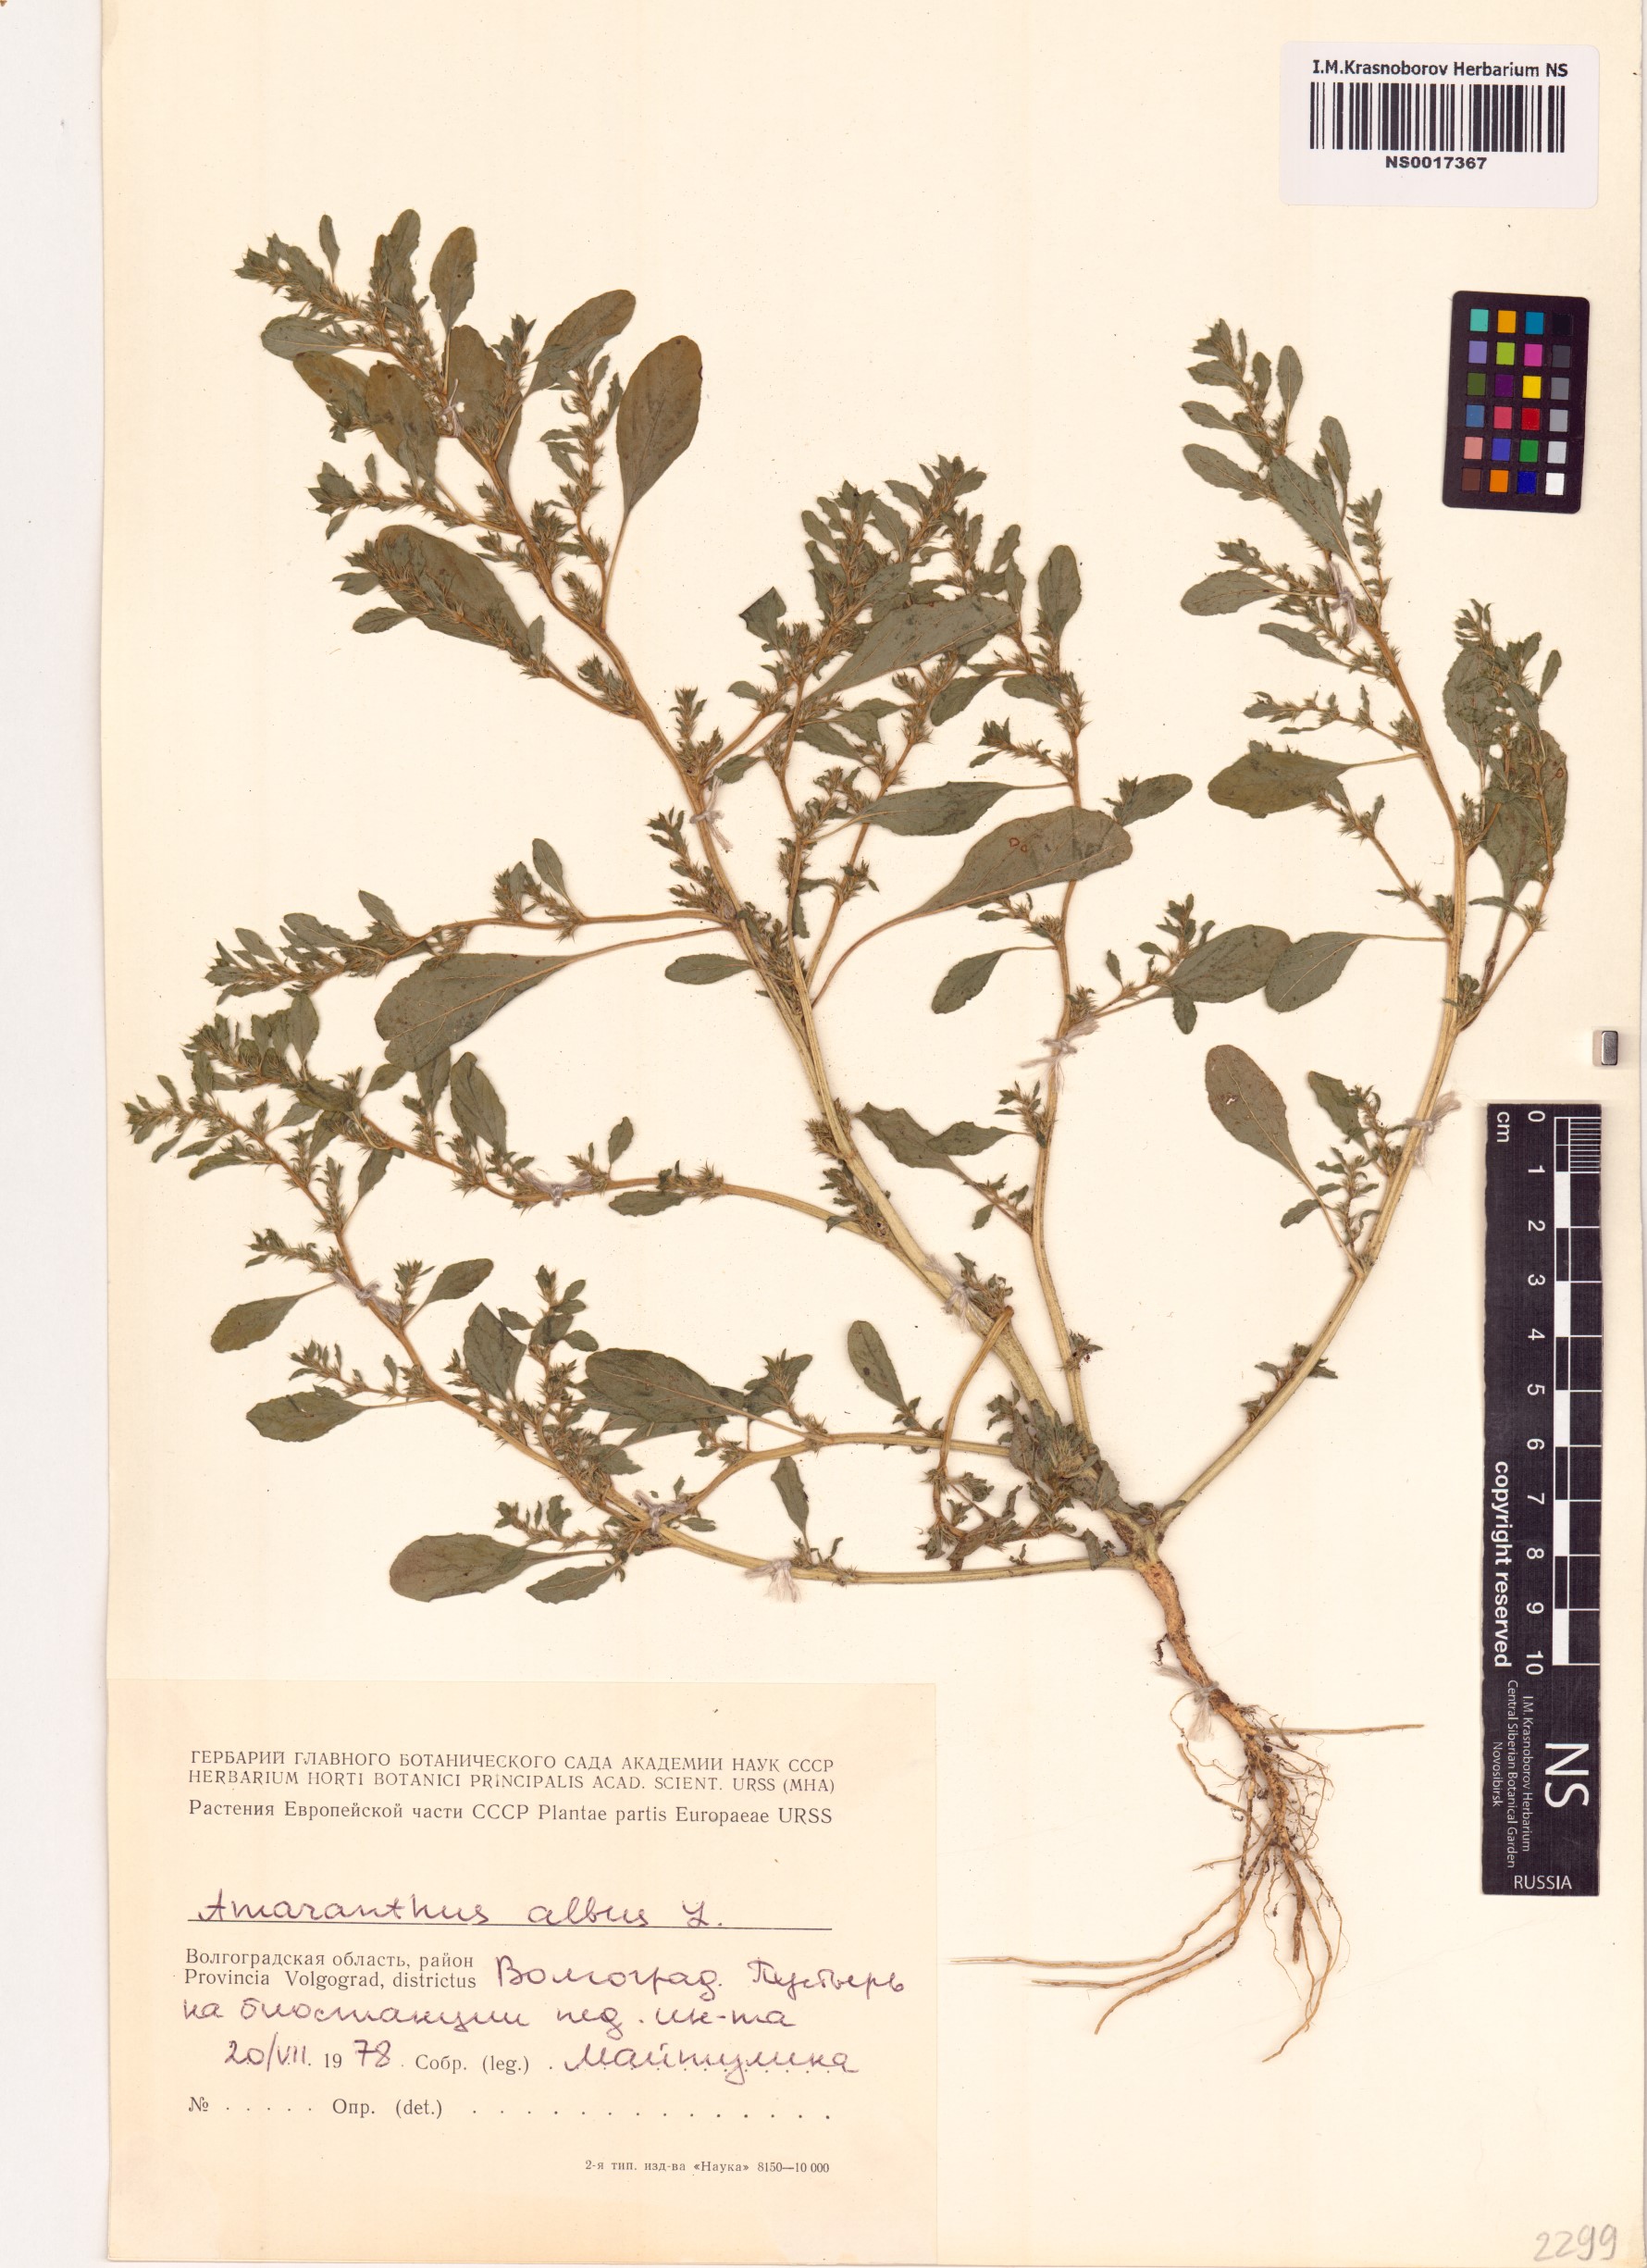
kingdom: Plantae
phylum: Tracheophyta
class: Magnoliopsida
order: Caryophyllales
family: Amaranthaceae
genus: Amaranthus
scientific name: Amaranthus albus
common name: White pigweed
